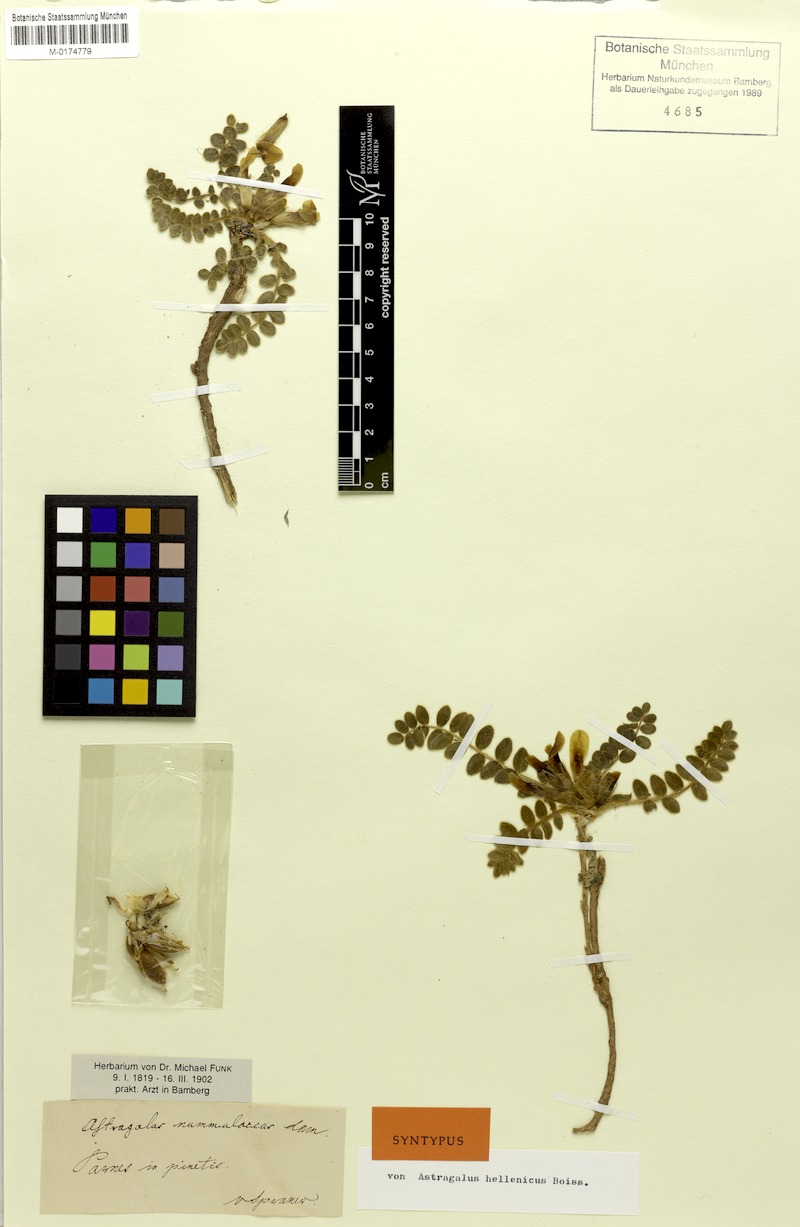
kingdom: Plantae
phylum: Tracheophyta
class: Magnoliopsida
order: Fabales
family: Fabaceae
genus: Astragalus
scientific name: Astragalus exscapus
